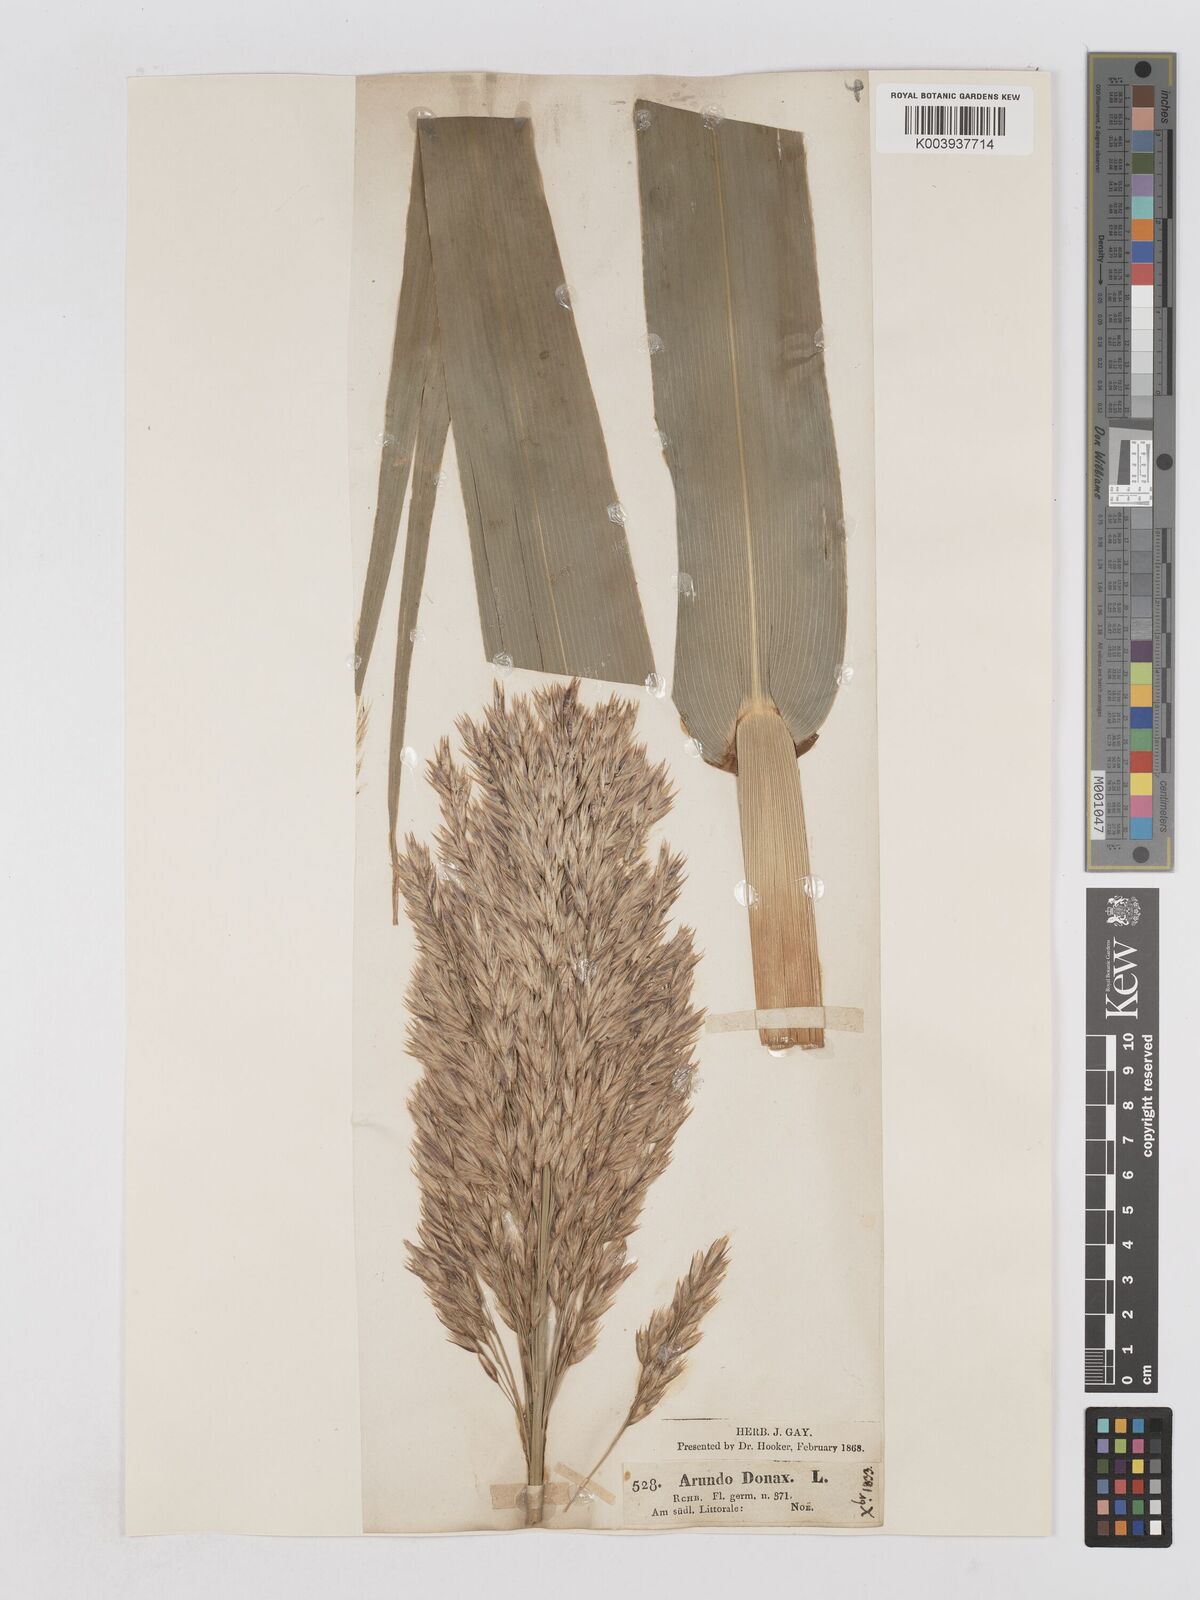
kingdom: Plantae
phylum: Tracheophyta
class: Liliopsida
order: Poales
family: Poaceae
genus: Arundo
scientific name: Arundo donax
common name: Giant reed
